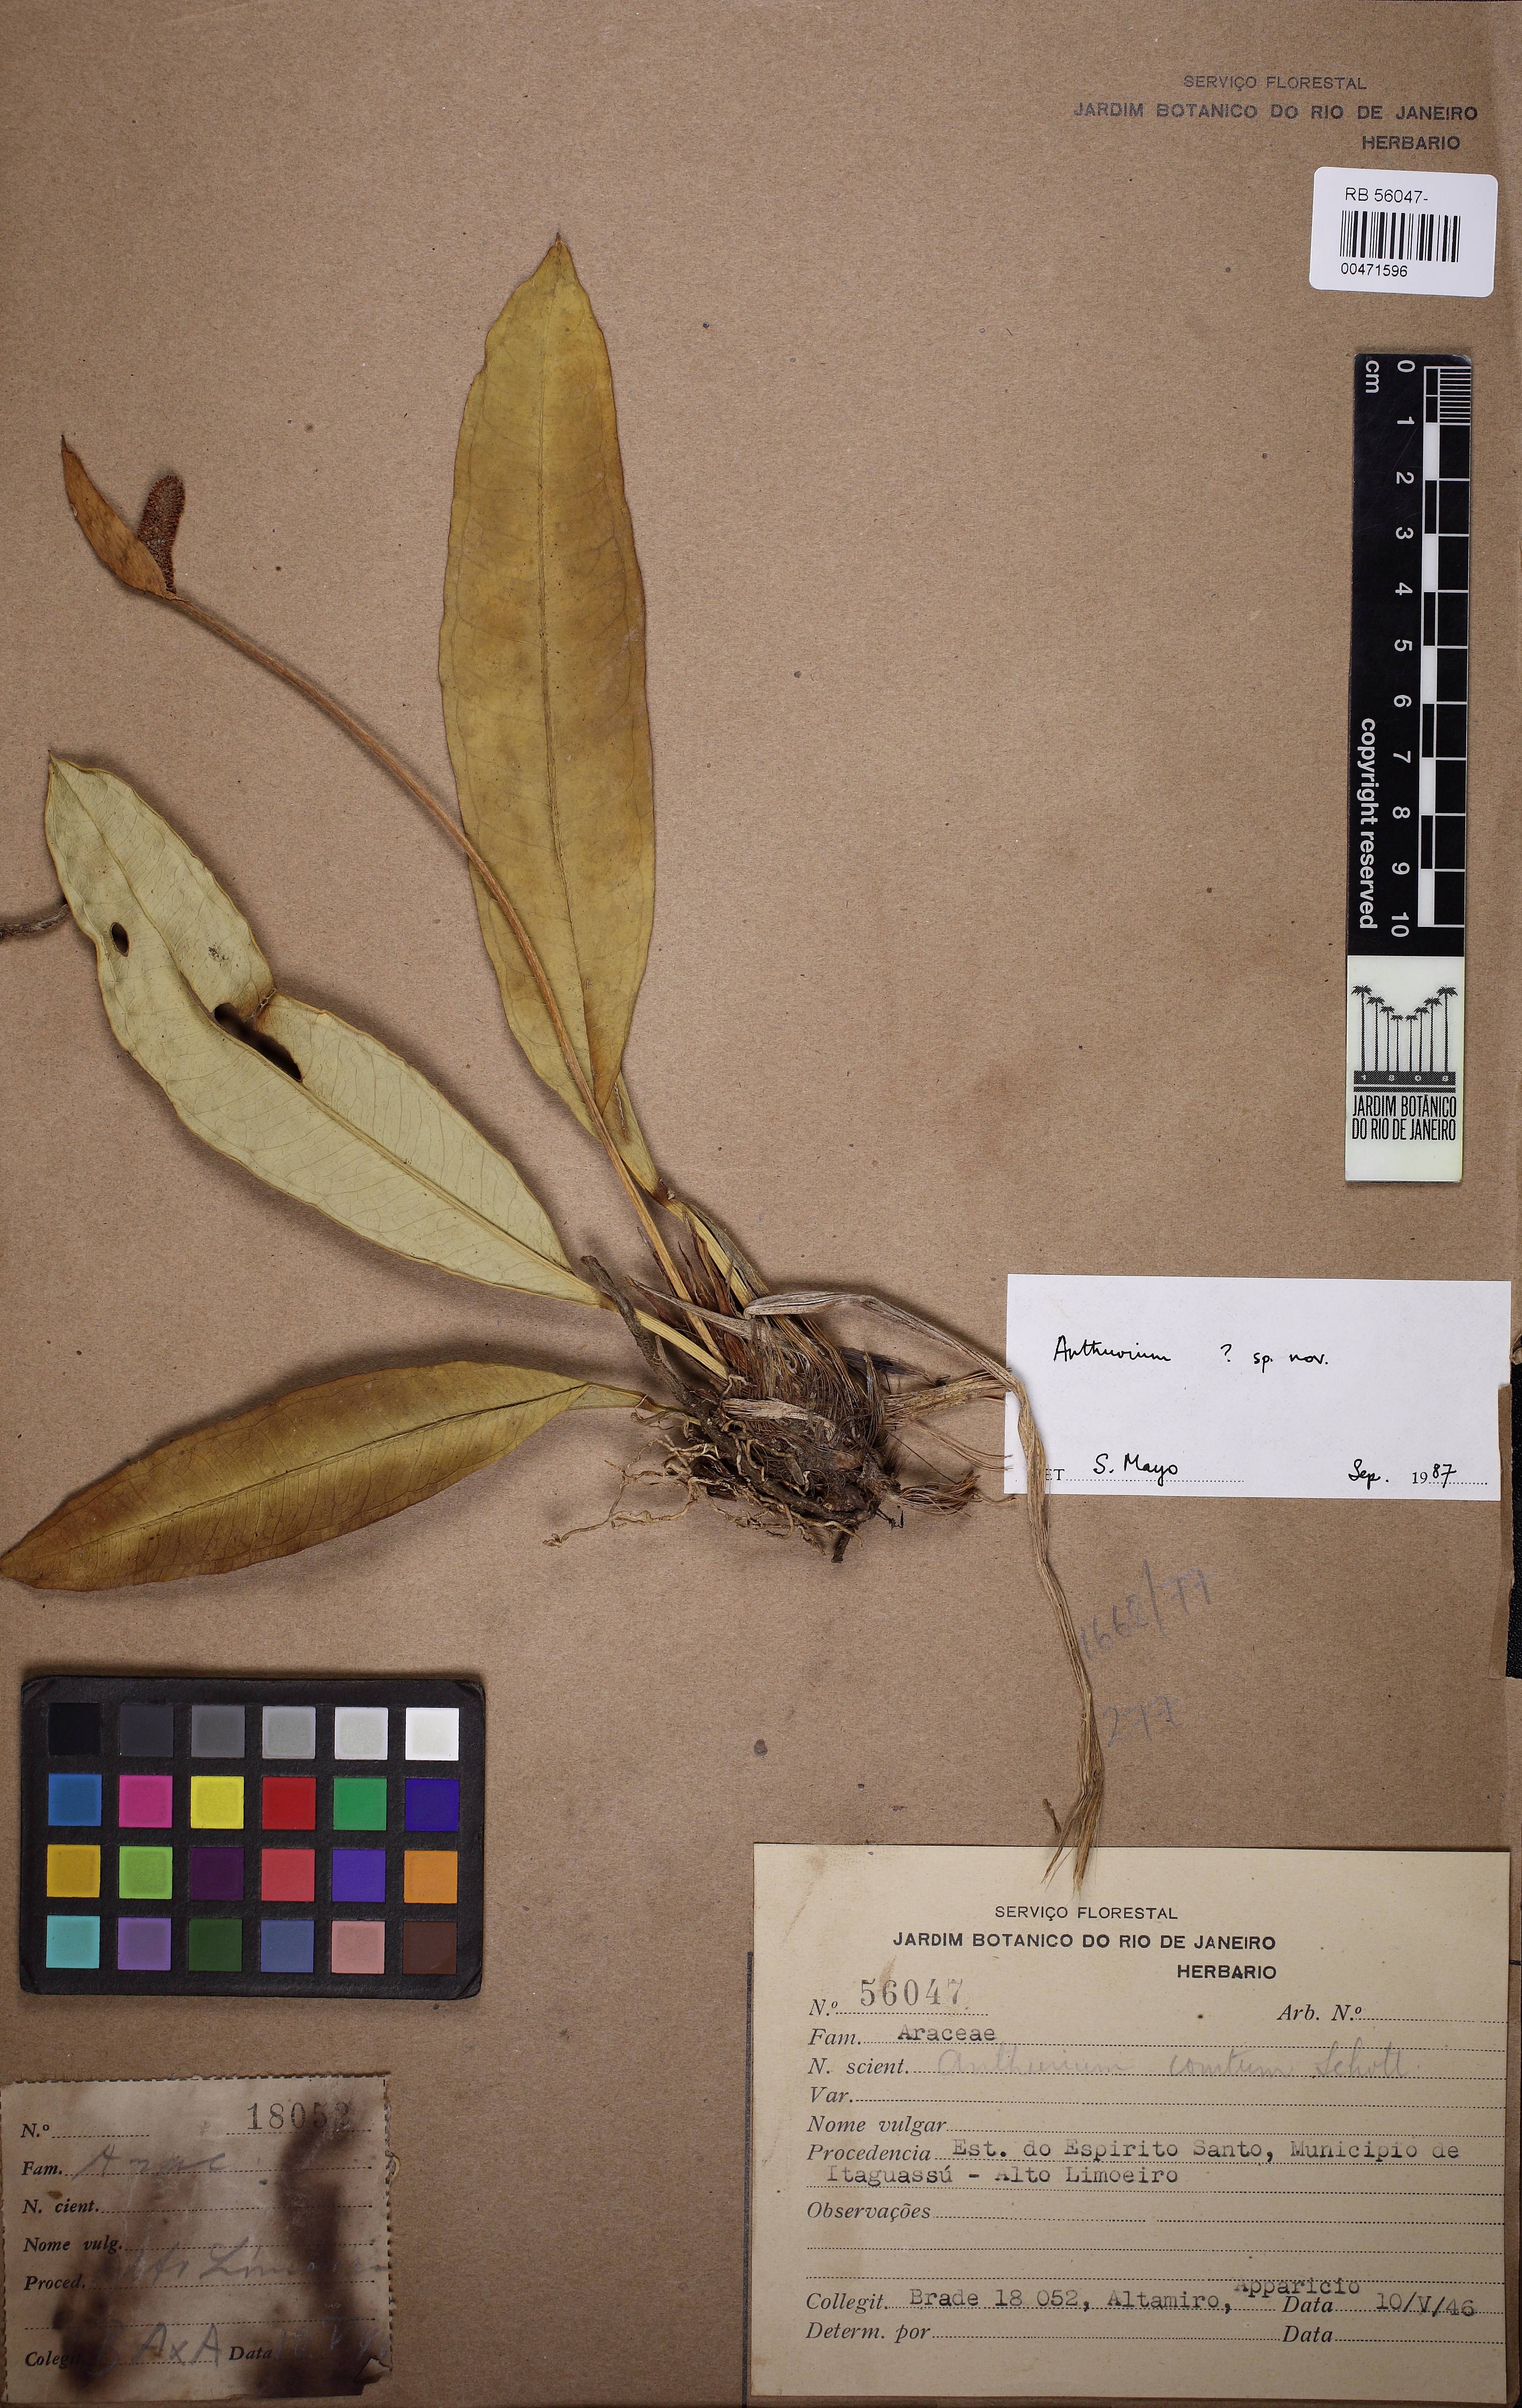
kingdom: Plantae
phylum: Tracheophyta
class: Liliopsida
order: Alismatales
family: Araceae
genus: Anthurium
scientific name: Anthurium
